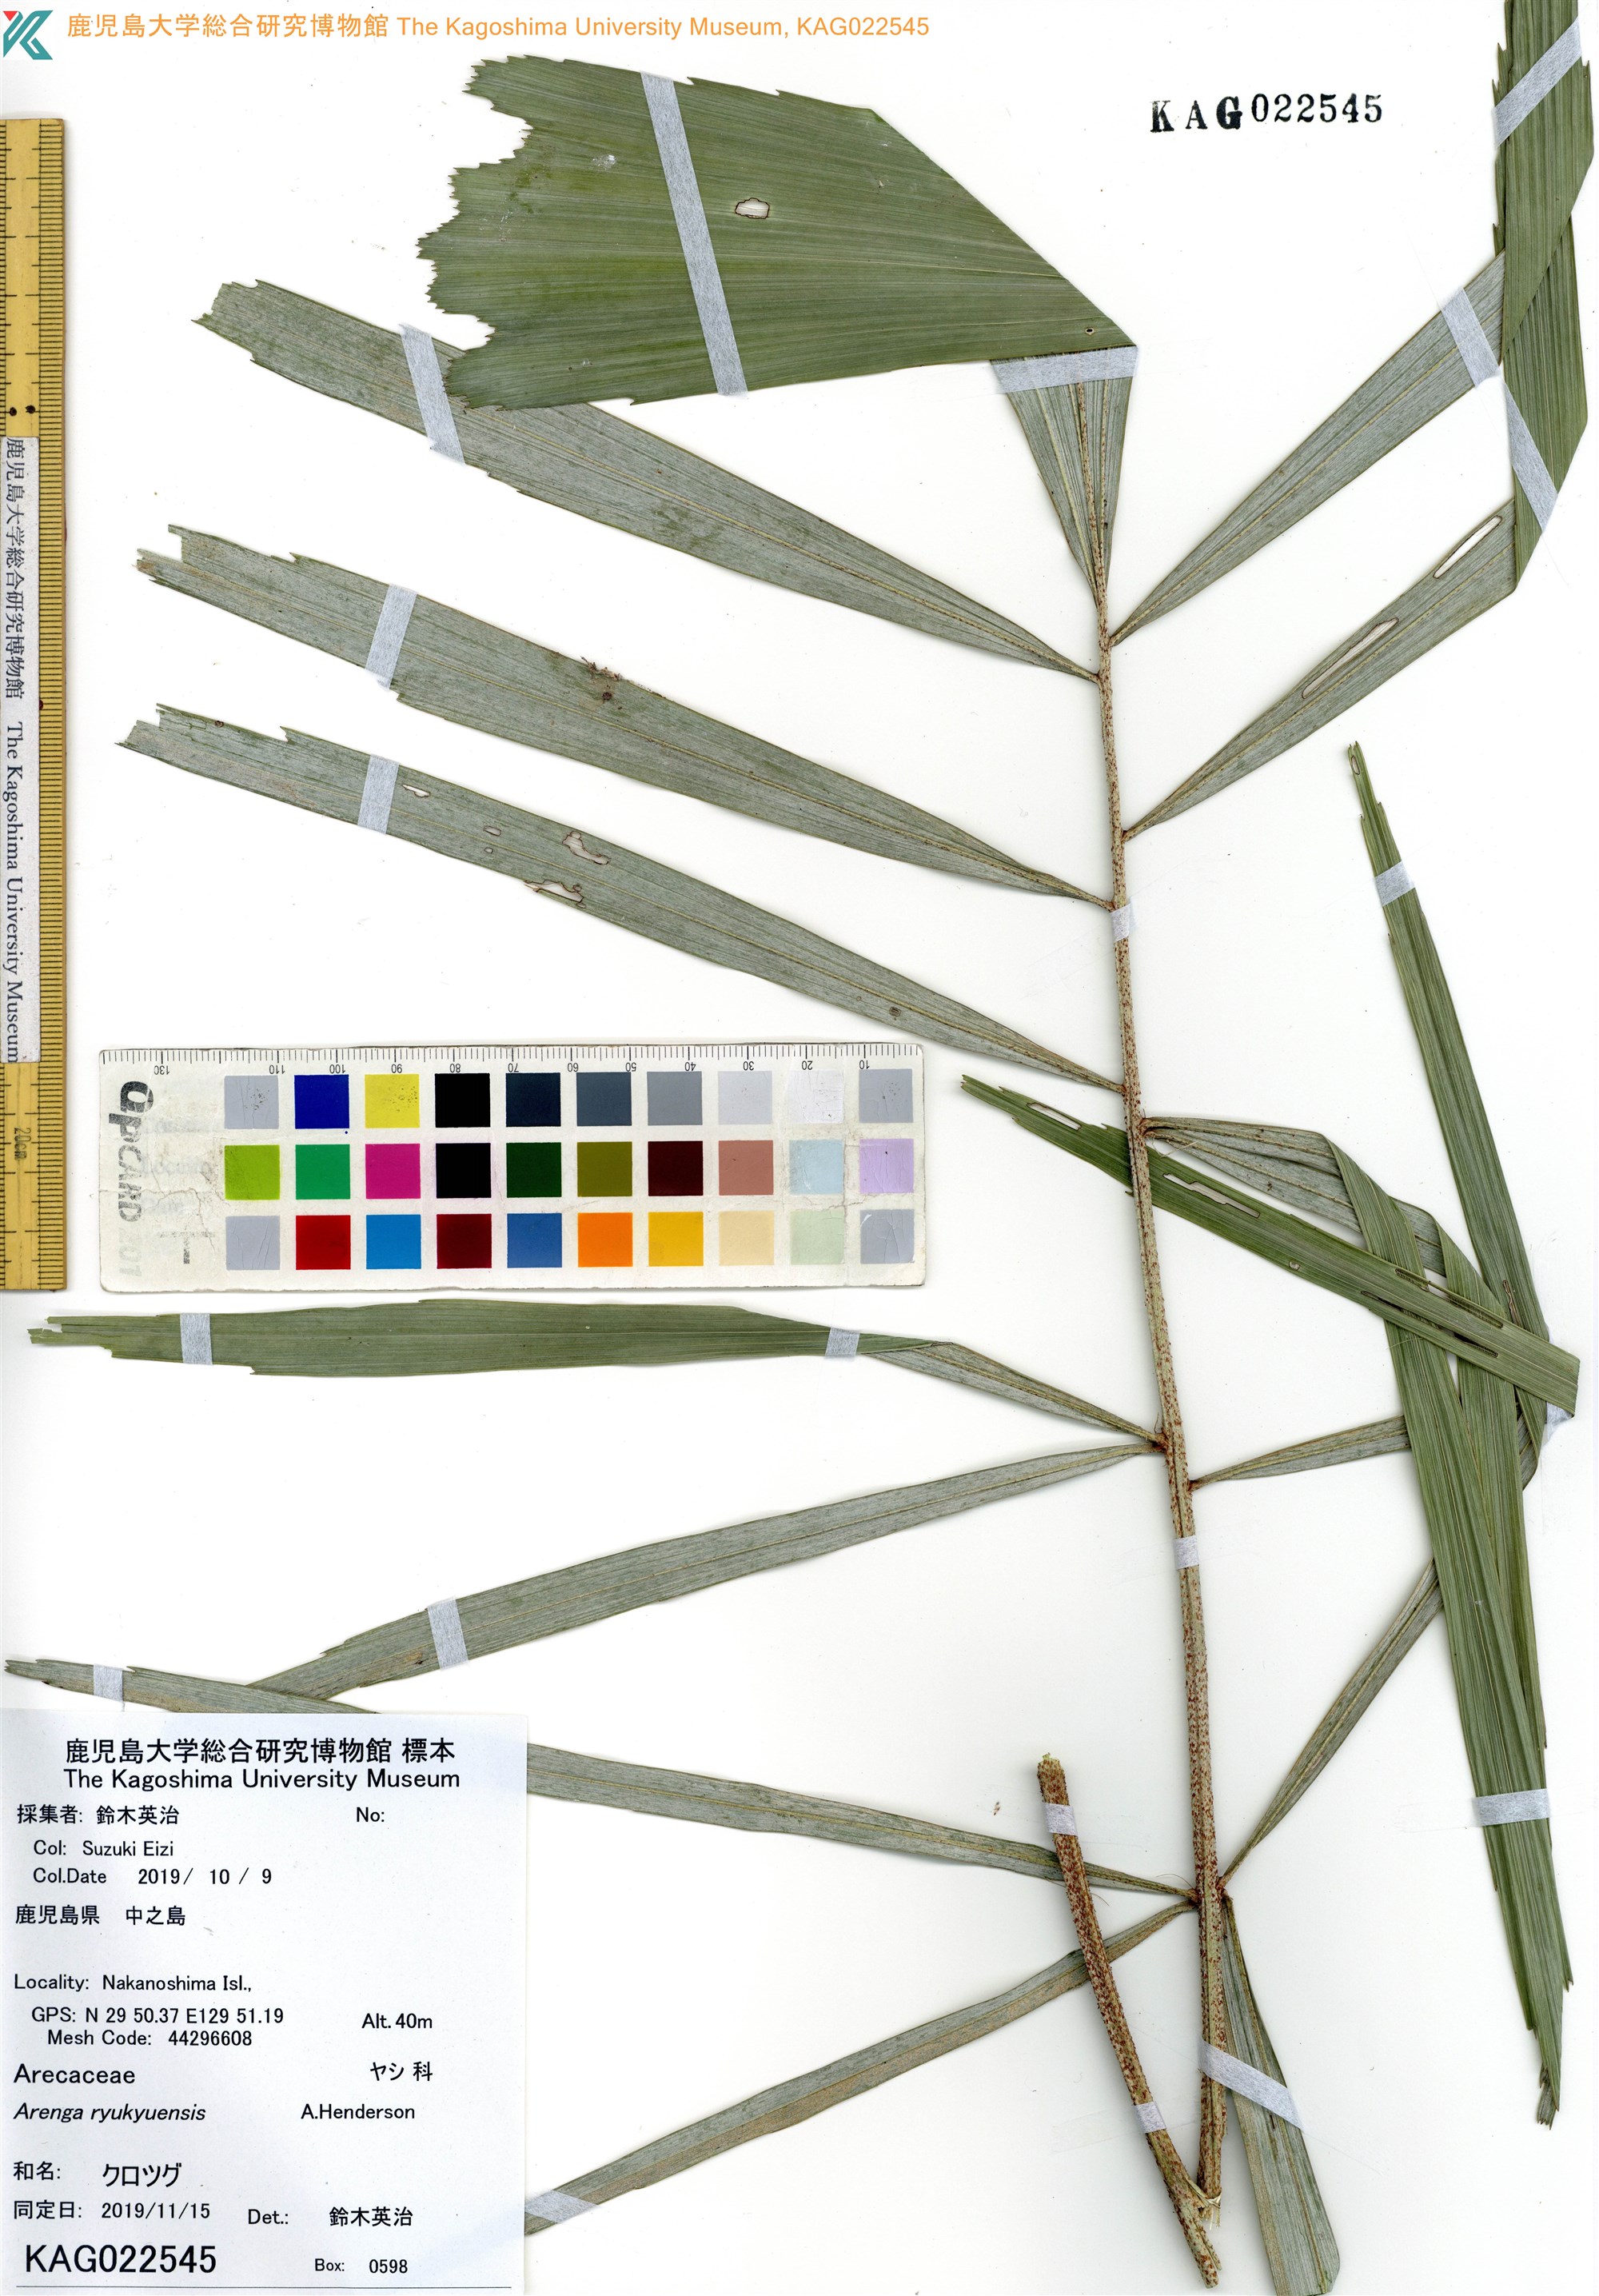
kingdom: Plantae
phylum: Tracheophyta
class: Liliopsida
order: Arecales
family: Arecaceae
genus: Arenga
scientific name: Arenga engleri
